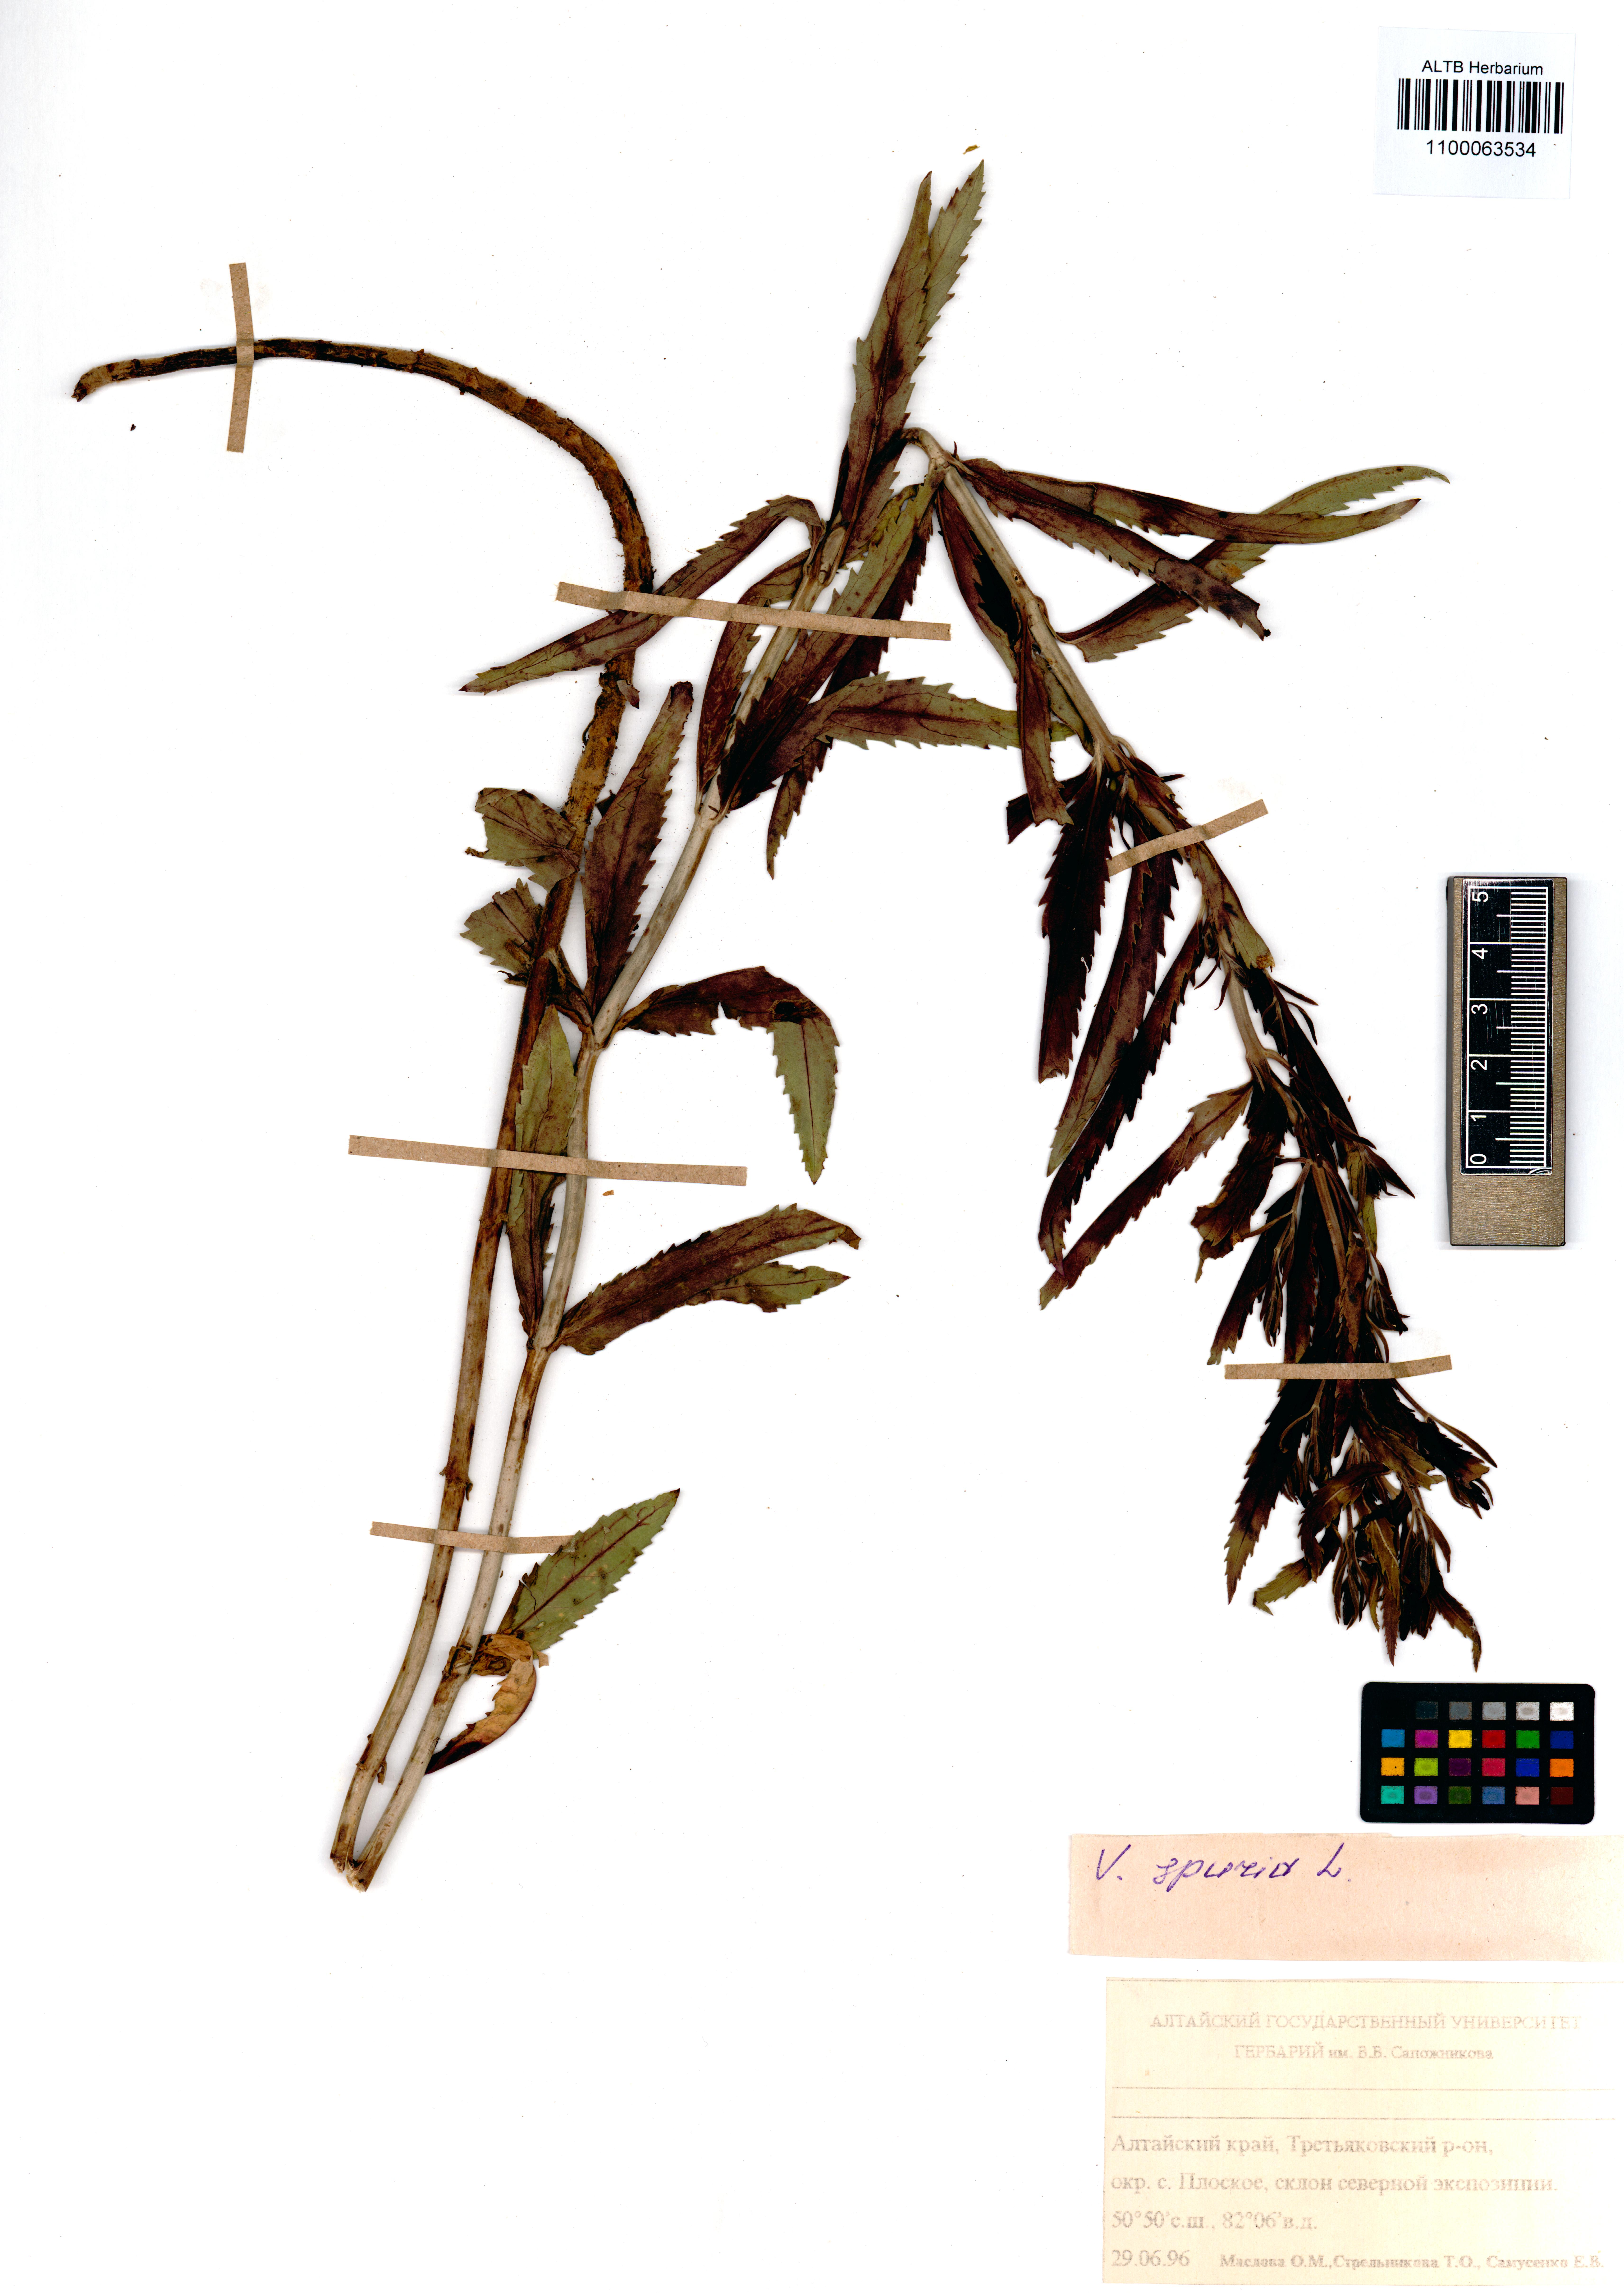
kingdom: Plantae
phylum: Tracheophyta
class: Magnoliopsida
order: Lamiales
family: Plantaginaceae
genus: Veronica
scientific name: Veronica spuria
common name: Bastard speedwell
